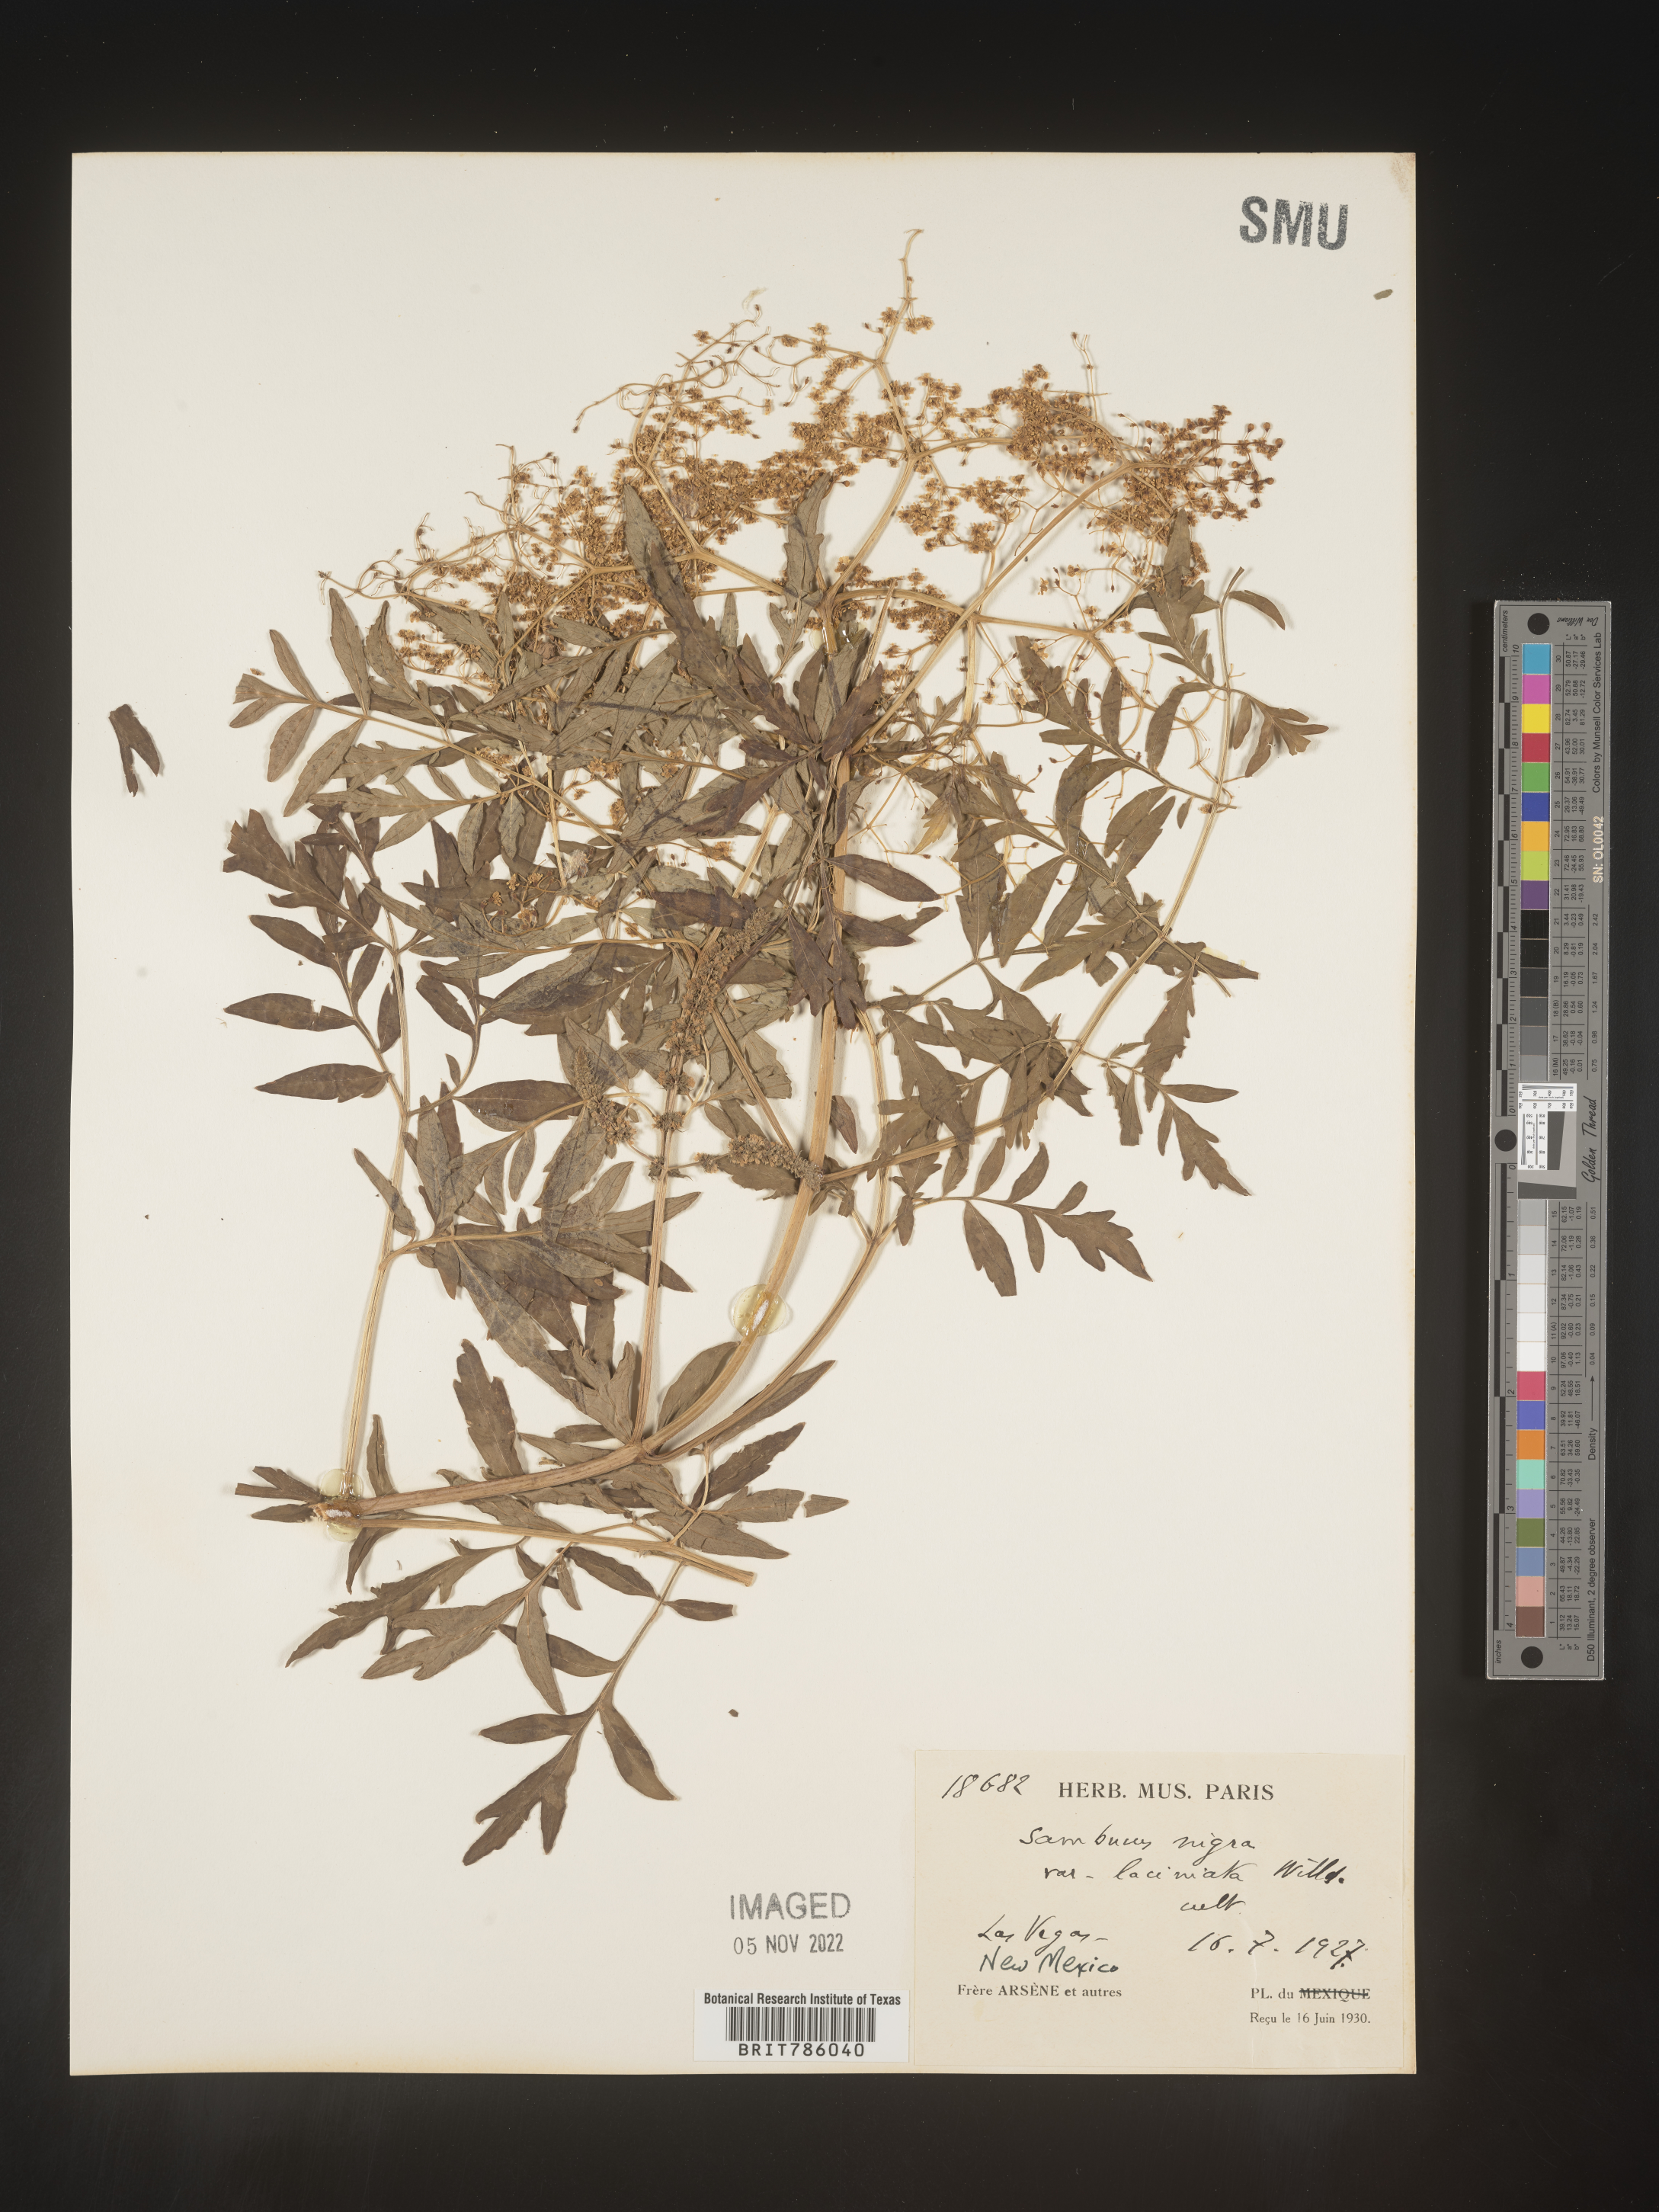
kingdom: Plantae
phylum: Tracheophyta
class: Magnoliopsida
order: Dipsacales
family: Viburnaceae
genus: Sambucus
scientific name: Sambucus
